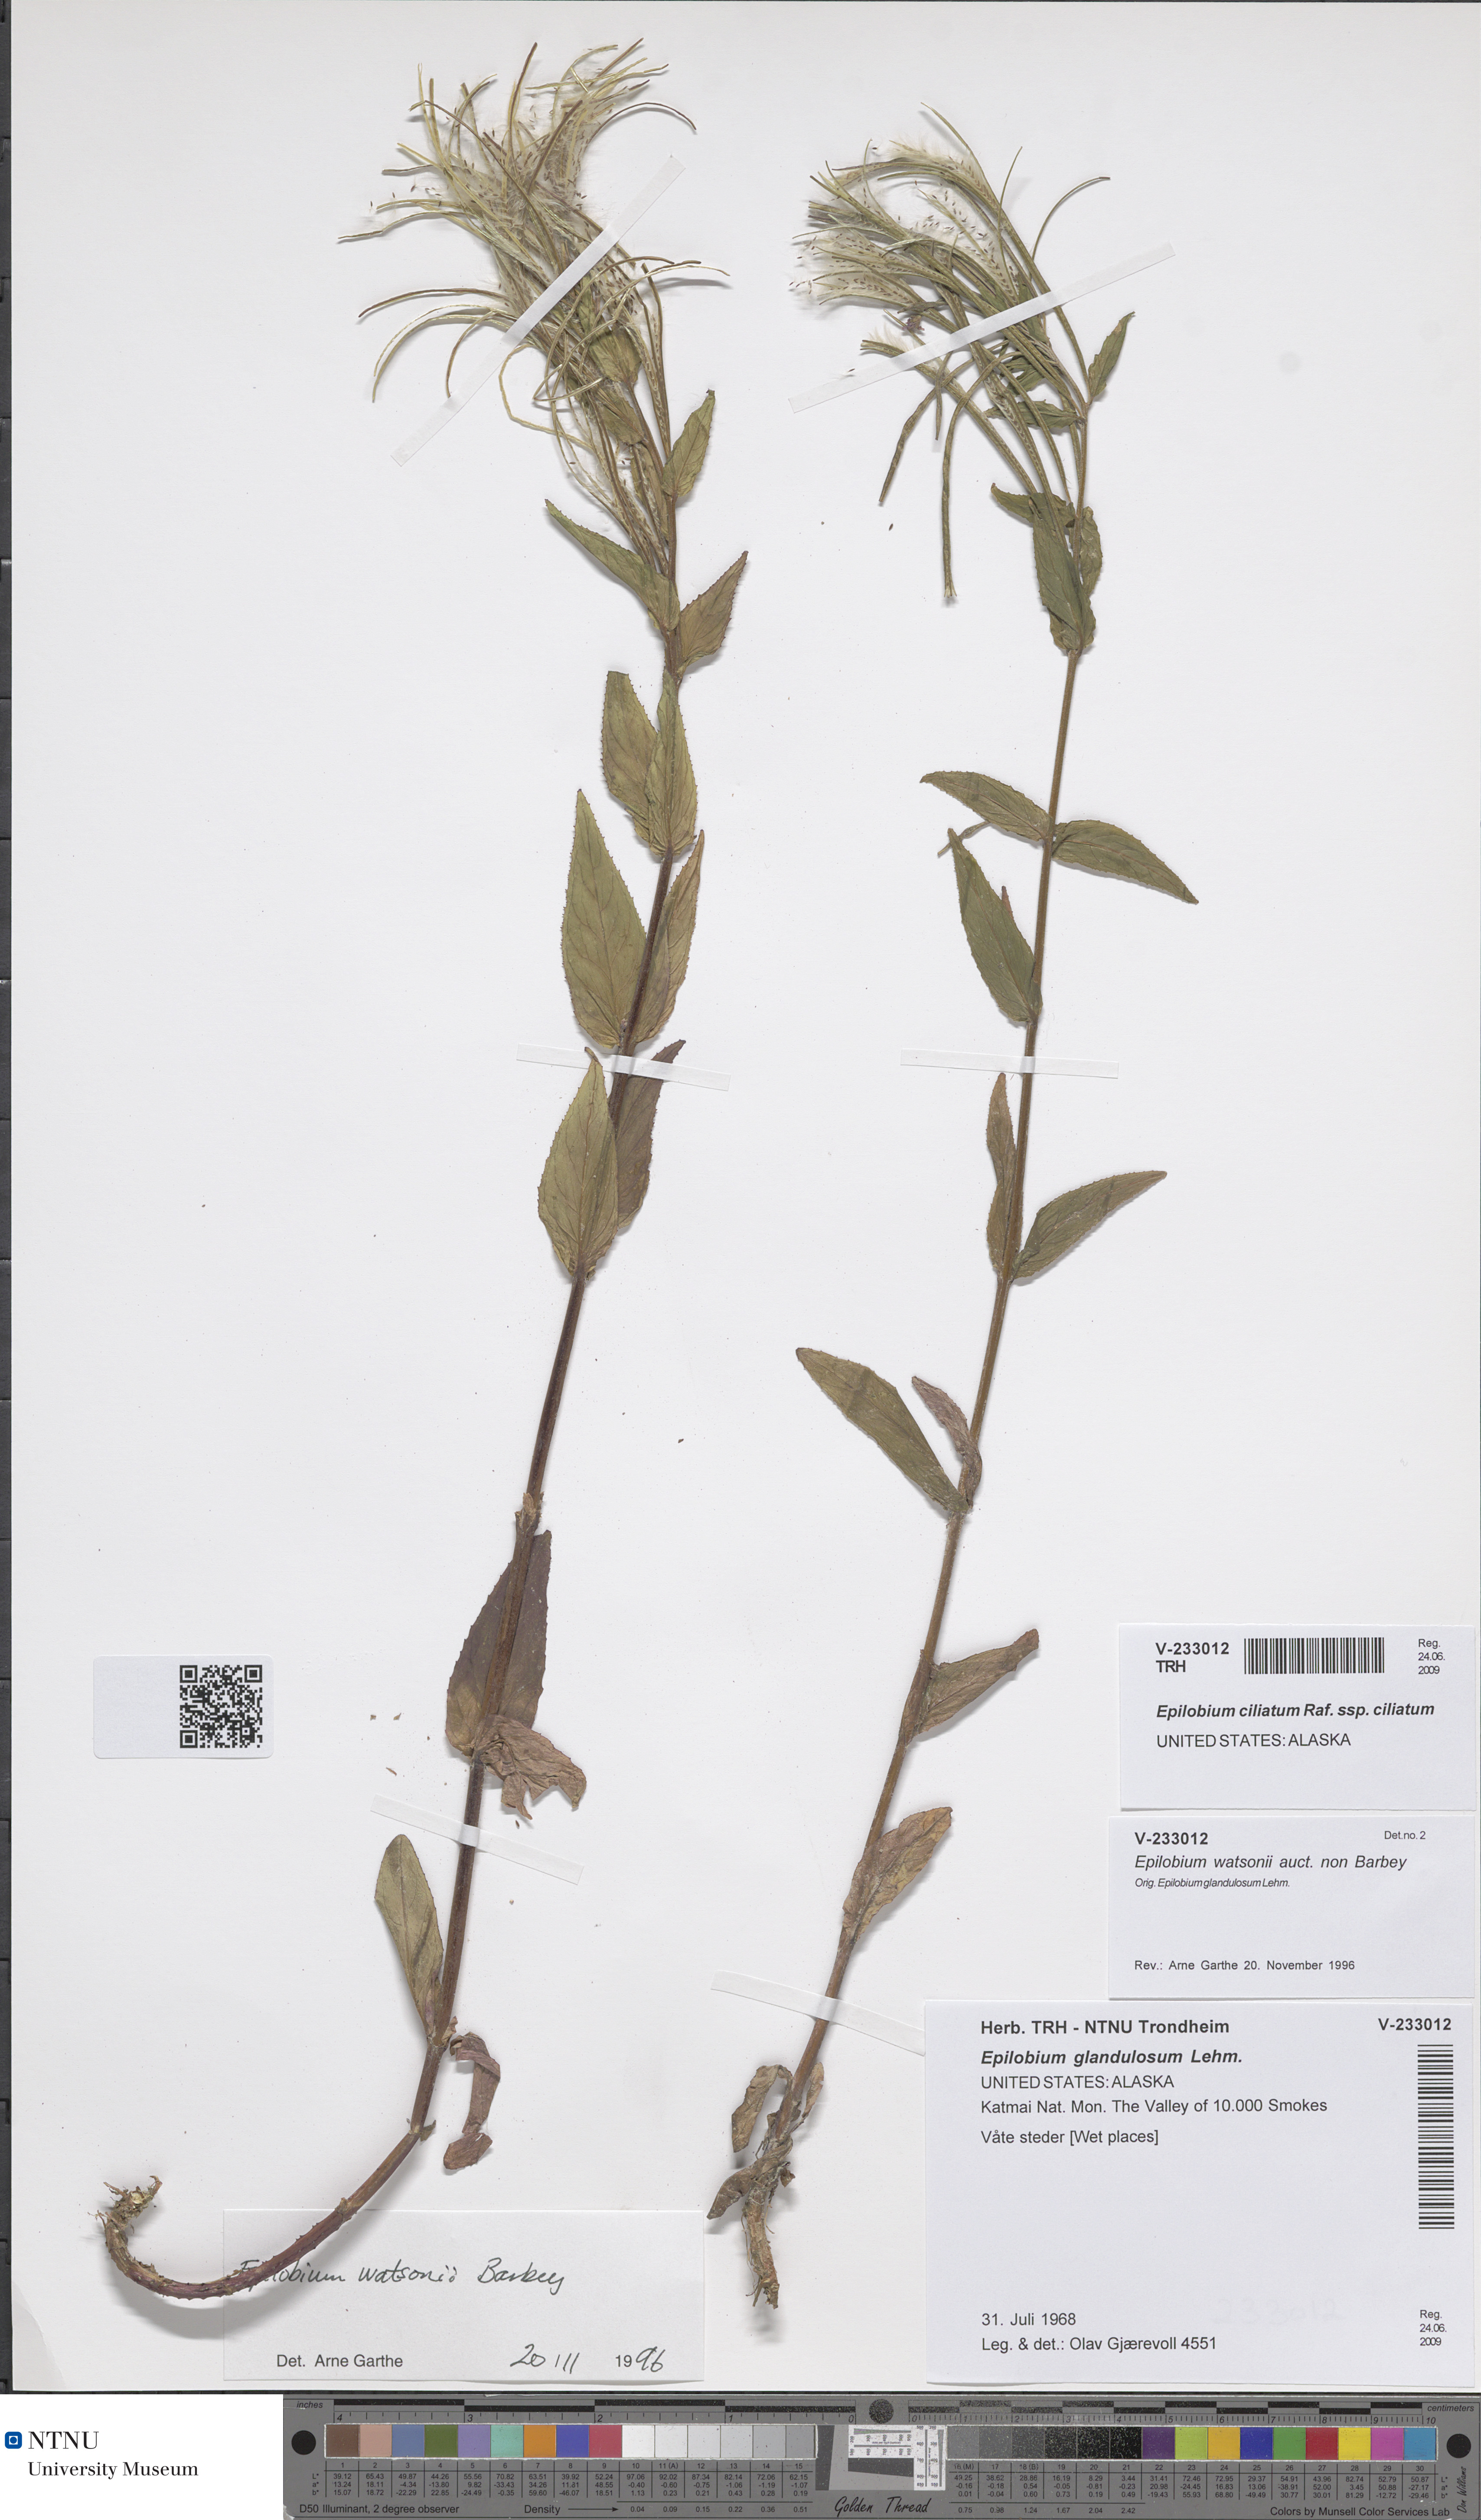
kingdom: Plantae
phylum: Tracheophyta
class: Magnoliopsida
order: Myrtales
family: Onagraceae
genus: Epilobium
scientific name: Epilobium ciliatum
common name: American willowherb
